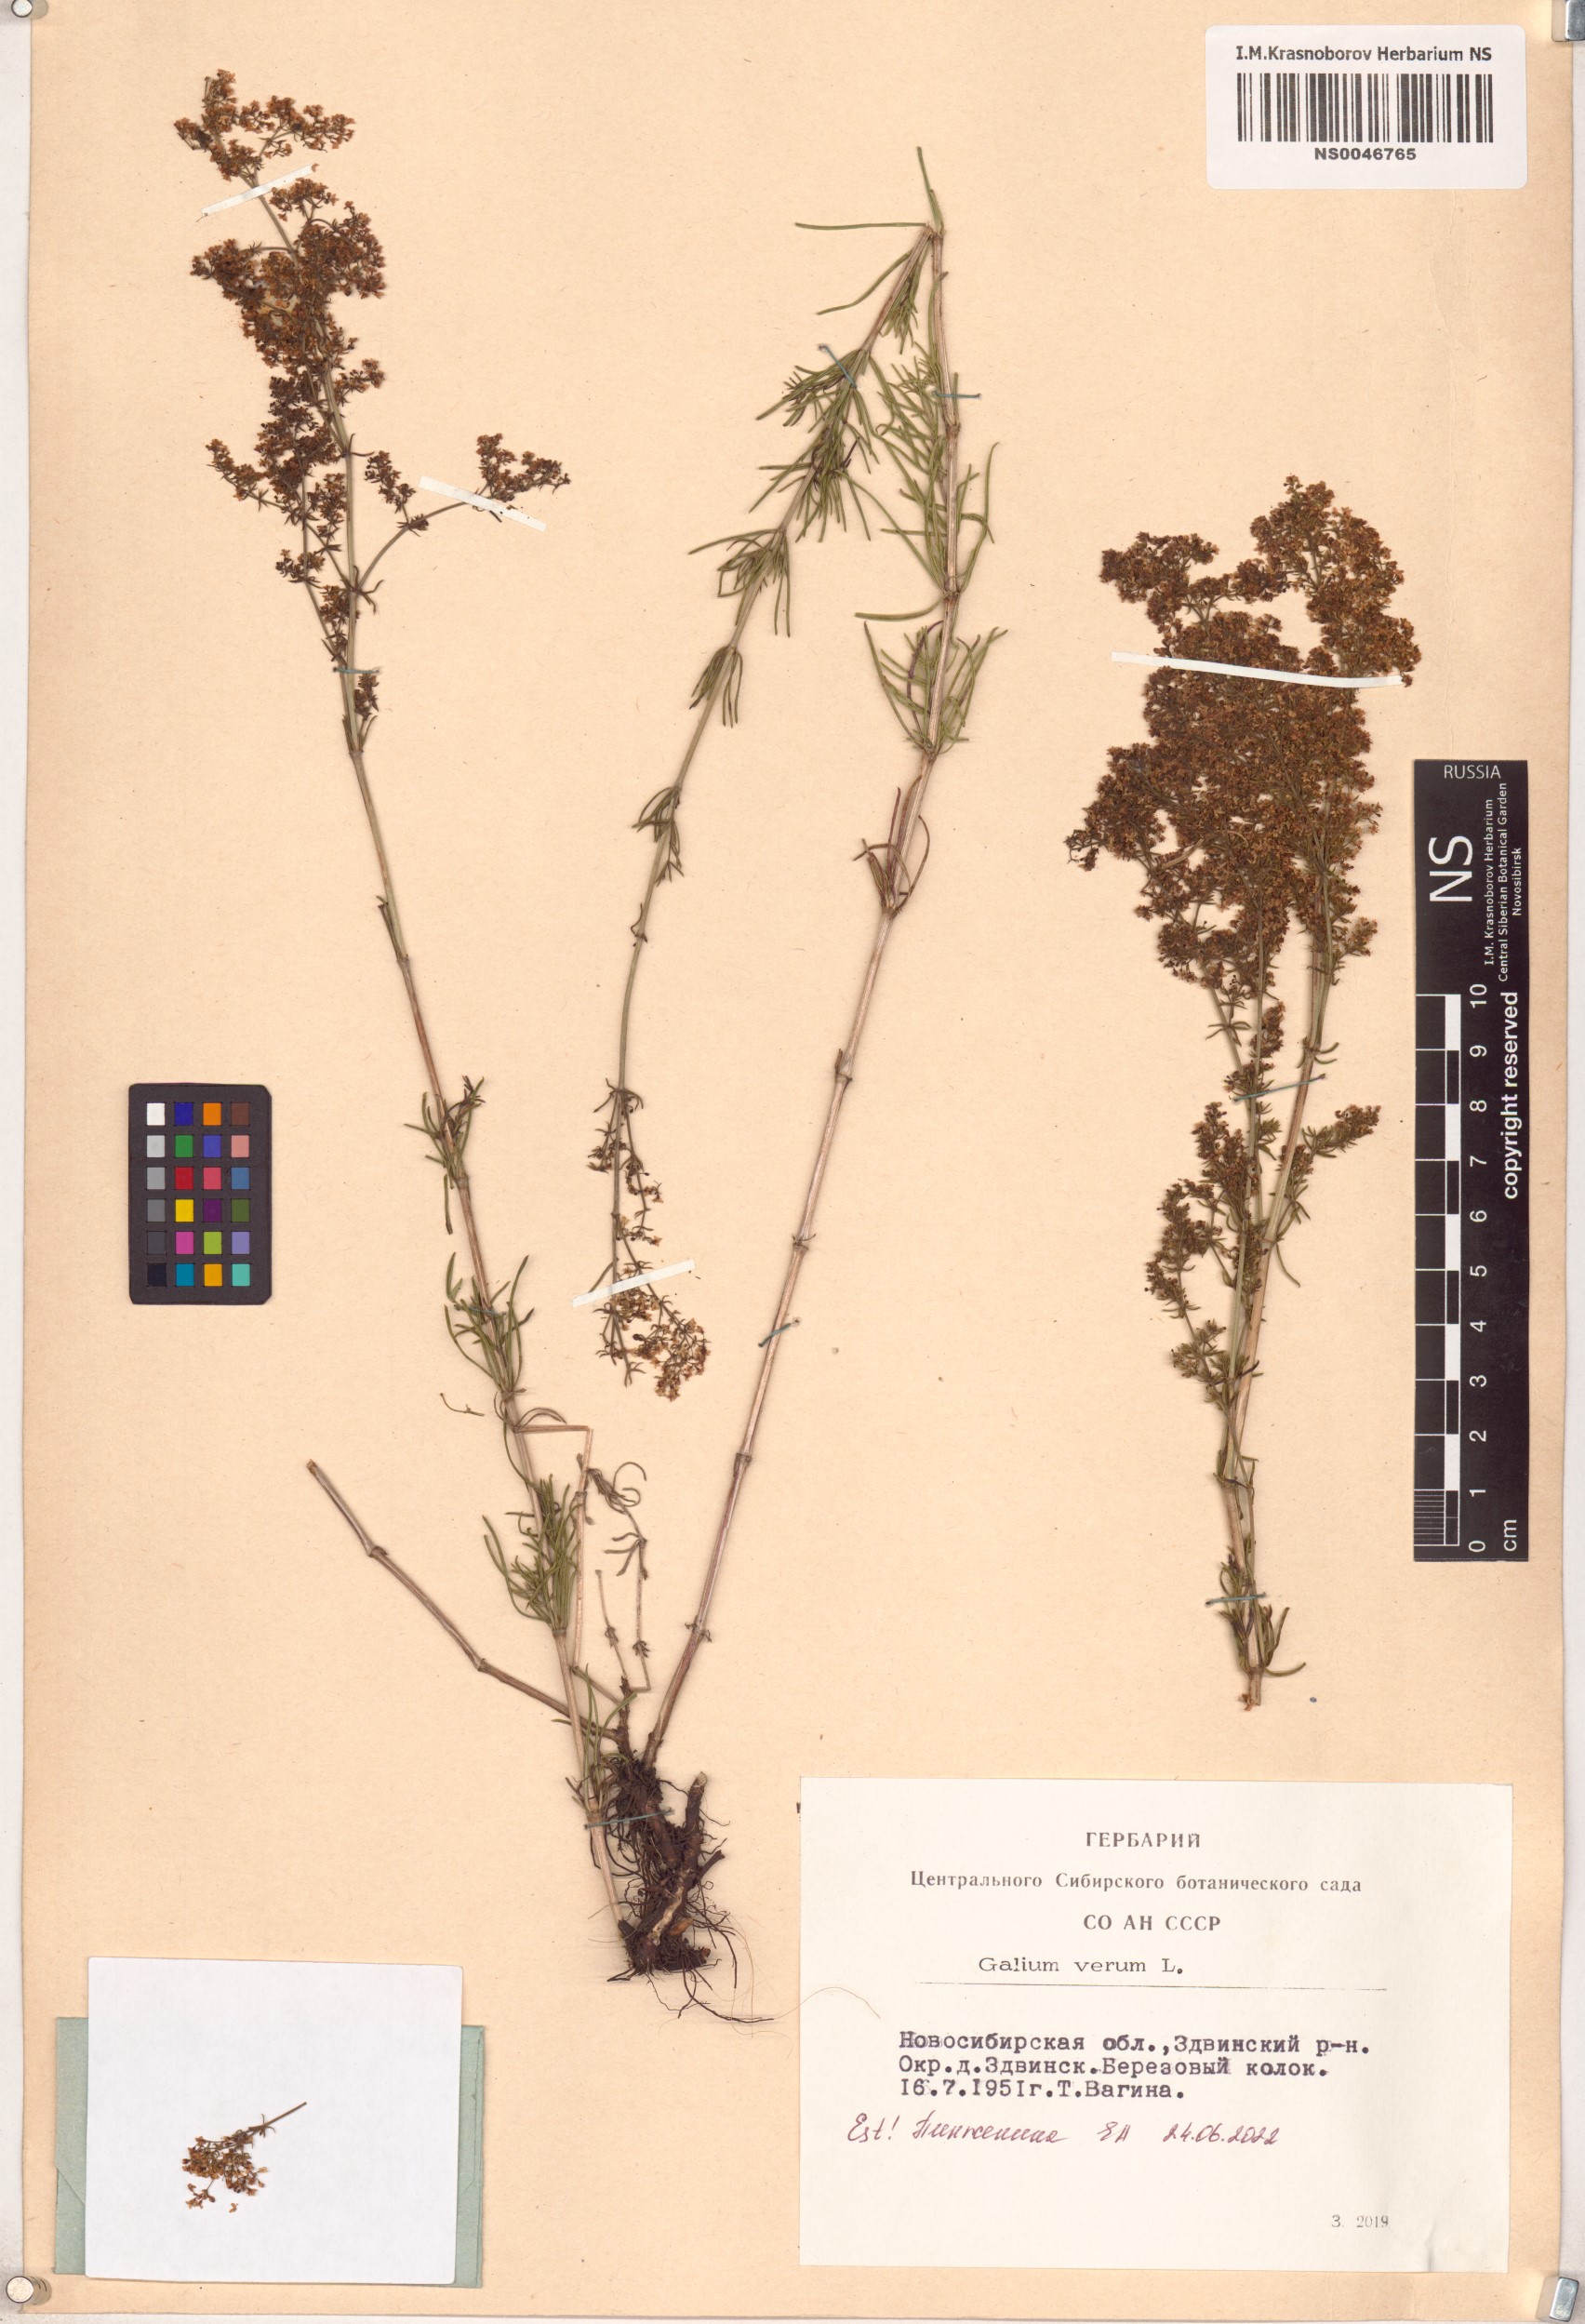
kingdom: Plantae
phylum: Tracheophyta
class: Magnoliopsida
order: Gentianales
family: Rubiaceae
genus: Galium
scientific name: Galium verum
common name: Lady's bedstraw
